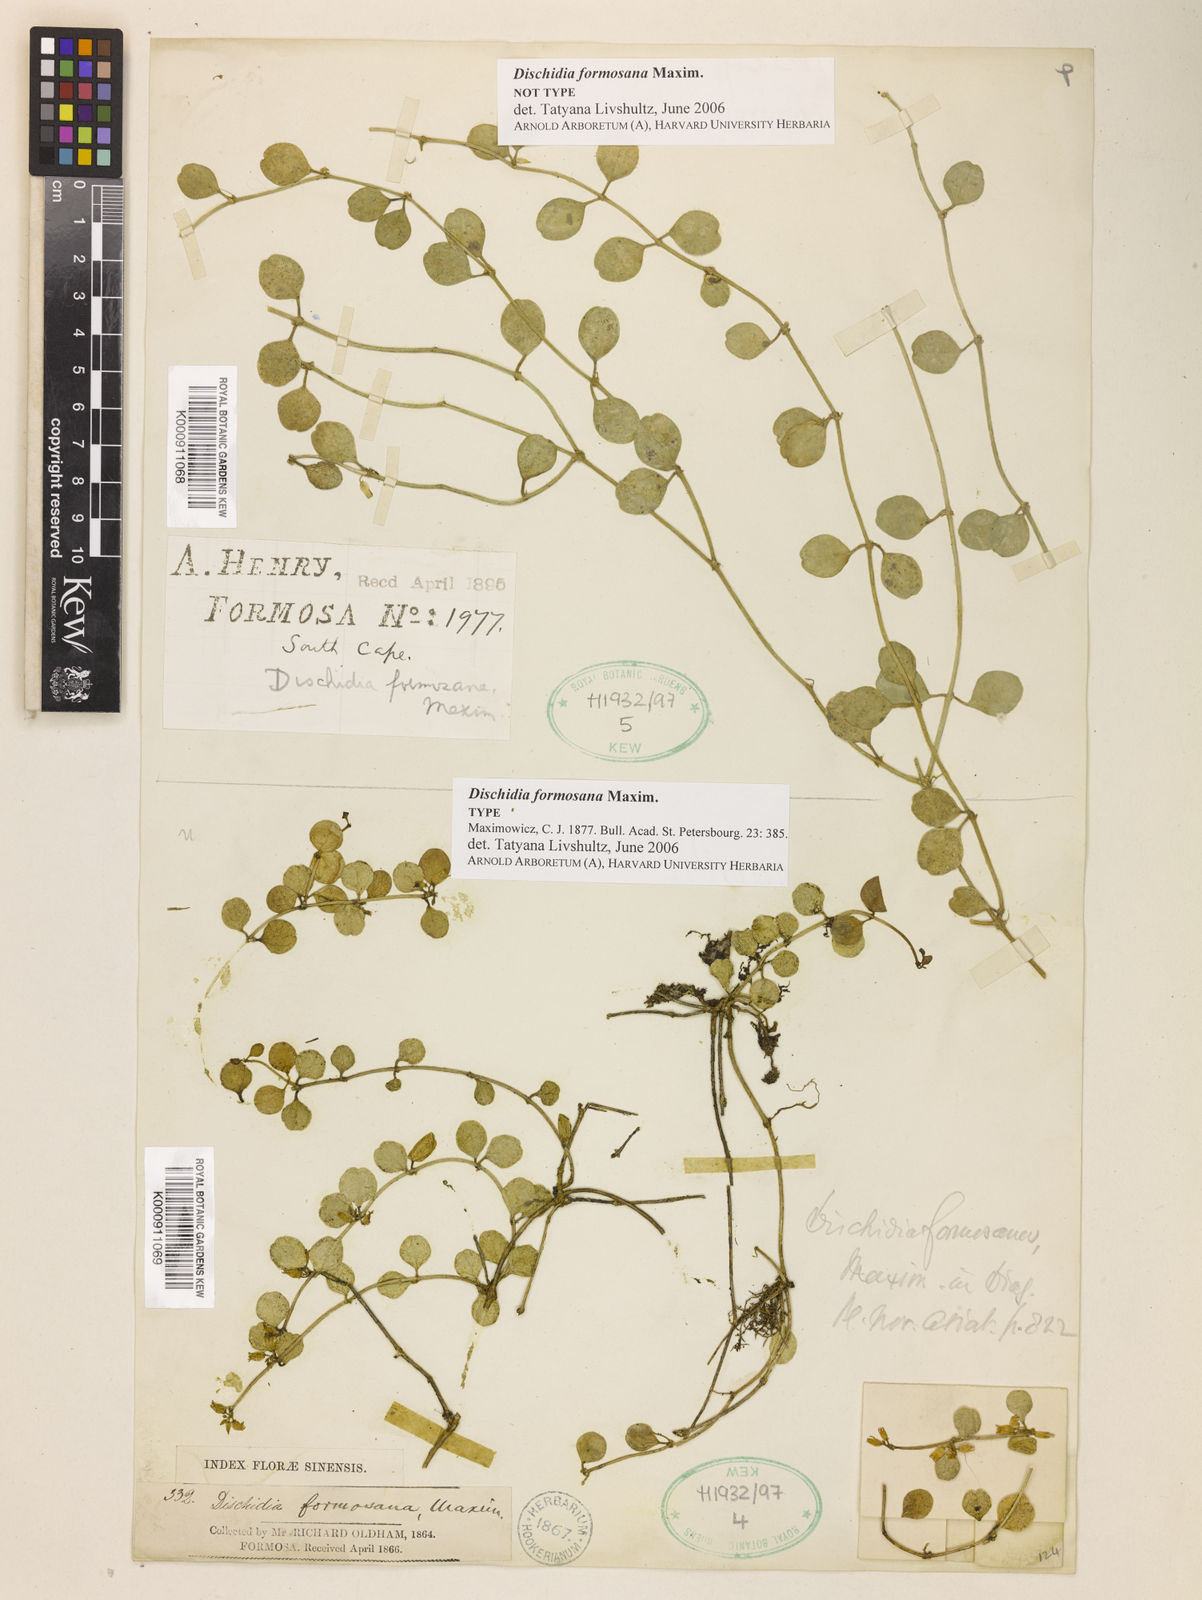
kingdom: Plantae
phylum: Tracheophyta
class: Magnoliopsida
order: Gentianales
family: Apocynaceae
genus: Dischidia
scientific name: Dischidia formosana
